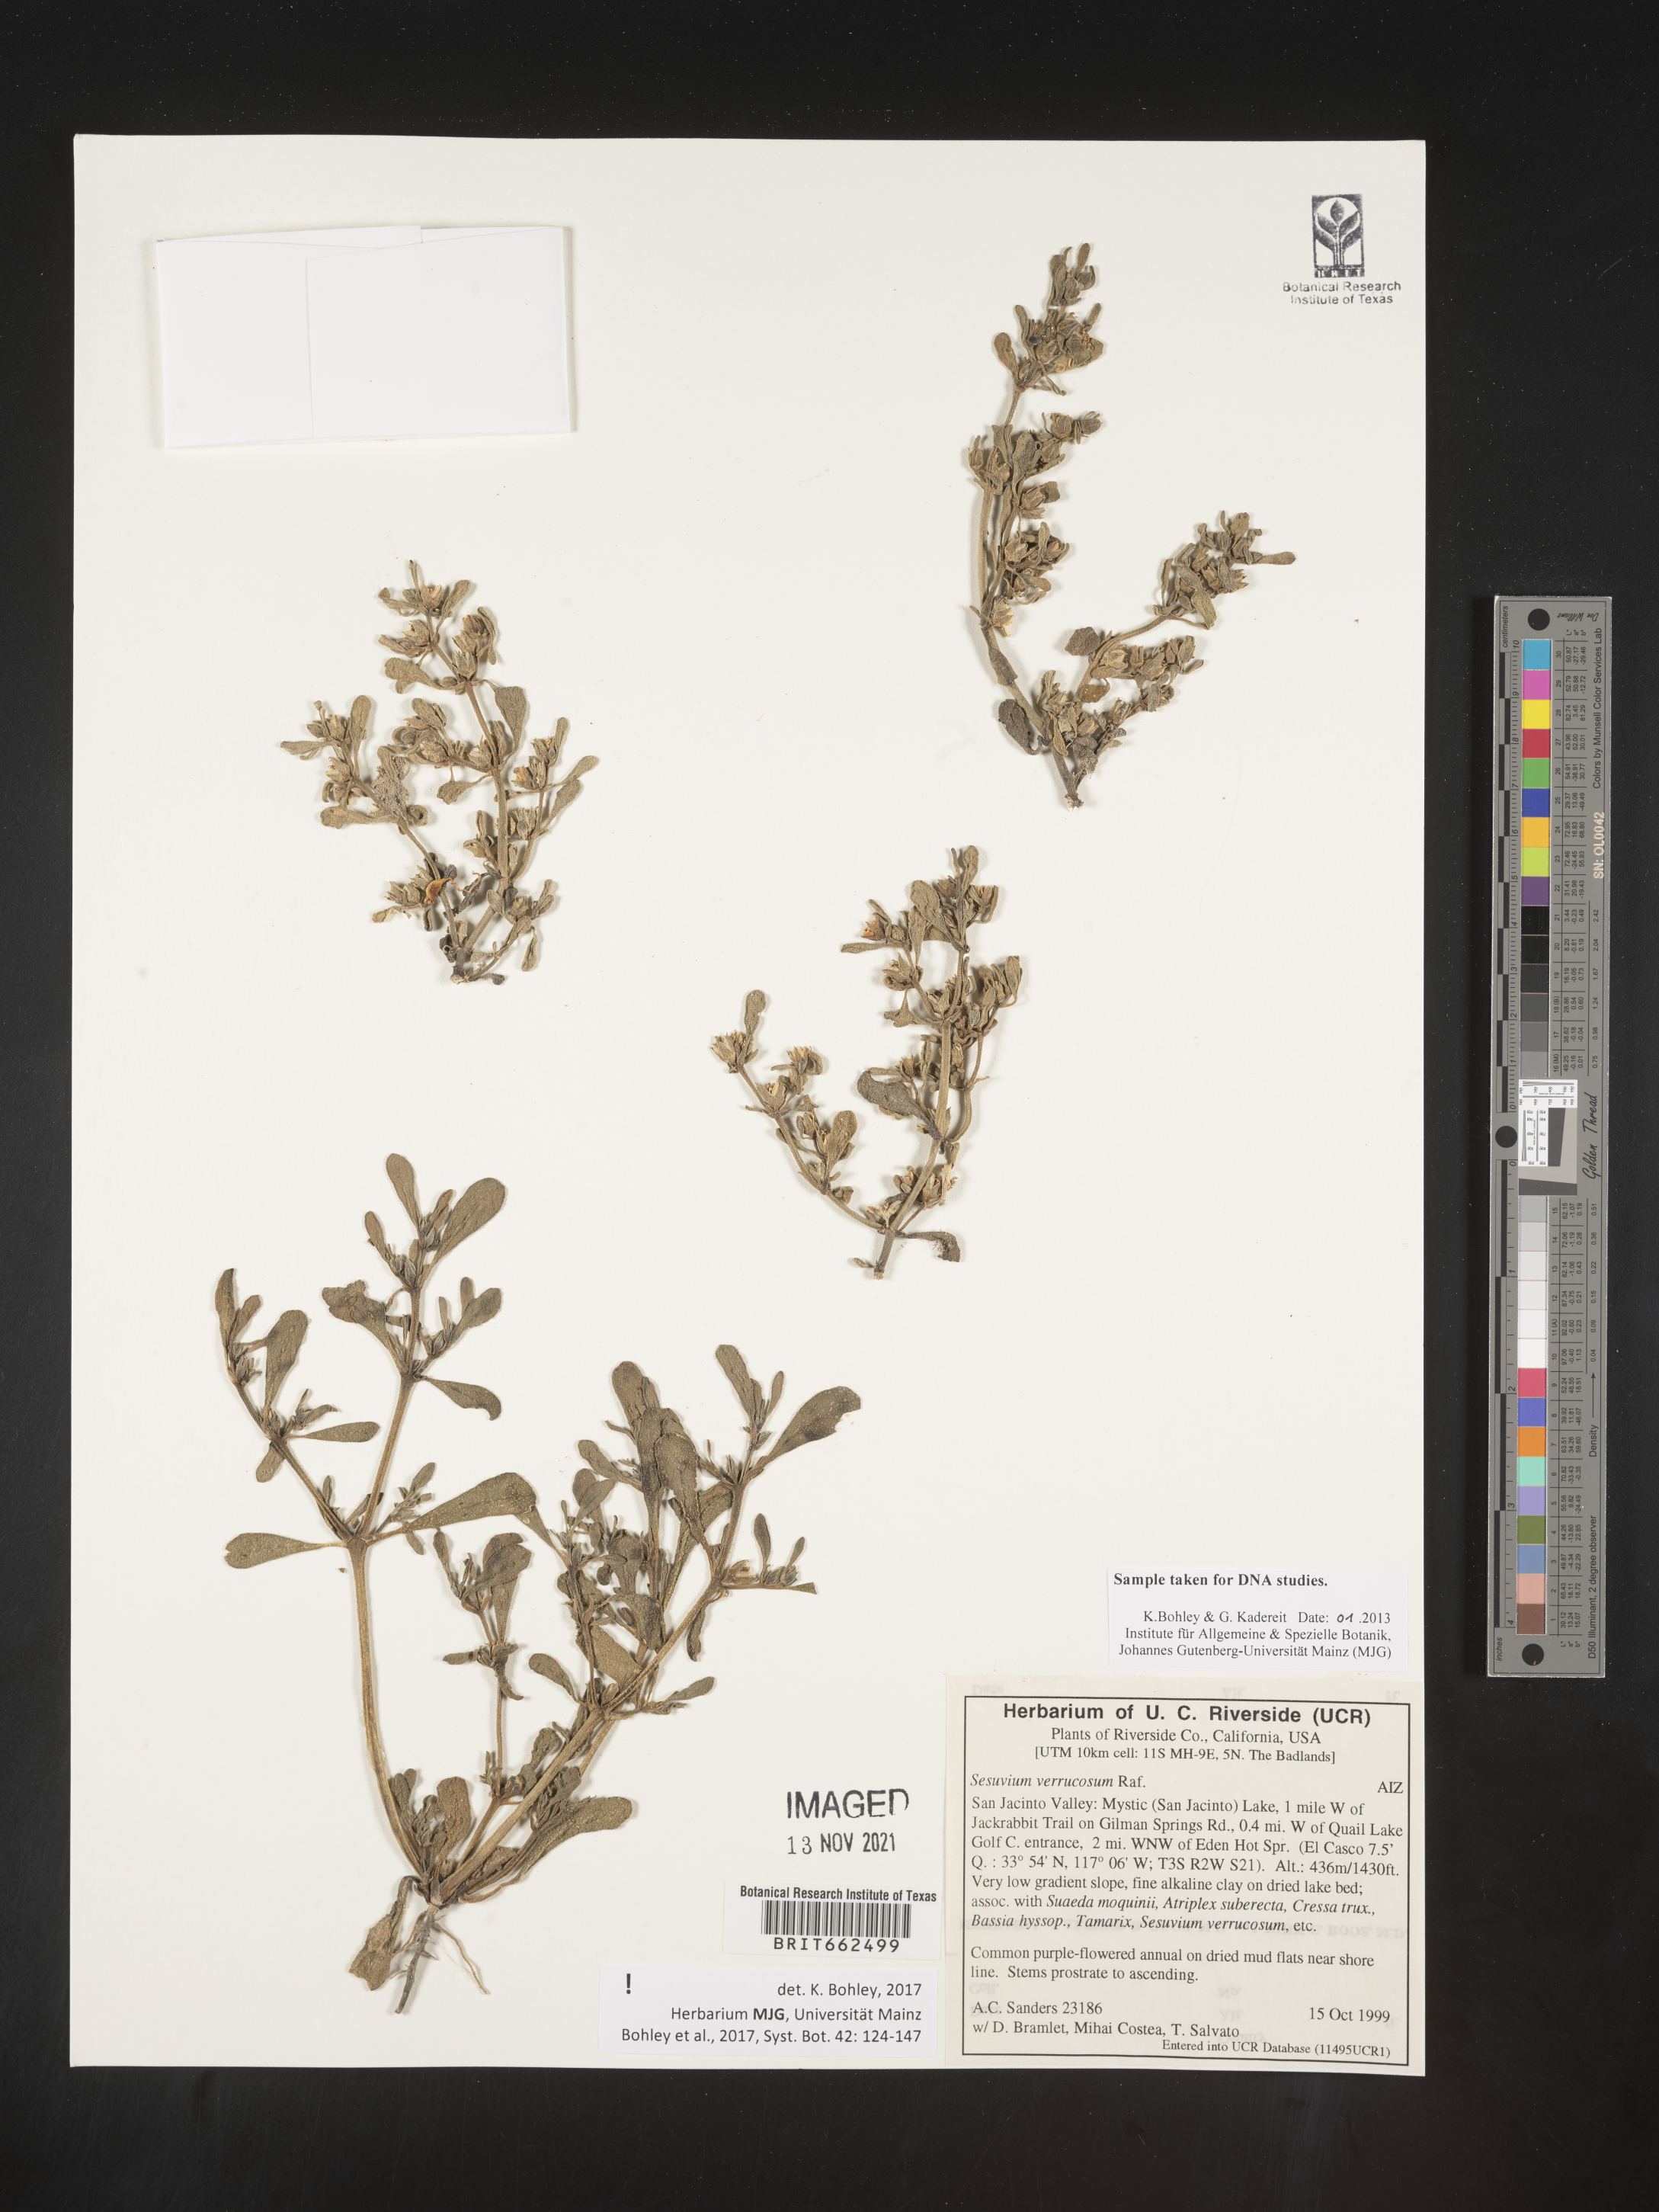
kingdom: Plantae
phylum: Tracheophyta
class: Magnoliopsida
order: Caryophyllales
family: Aizoaceae
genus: Sesuvium
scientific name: Sesuvium
